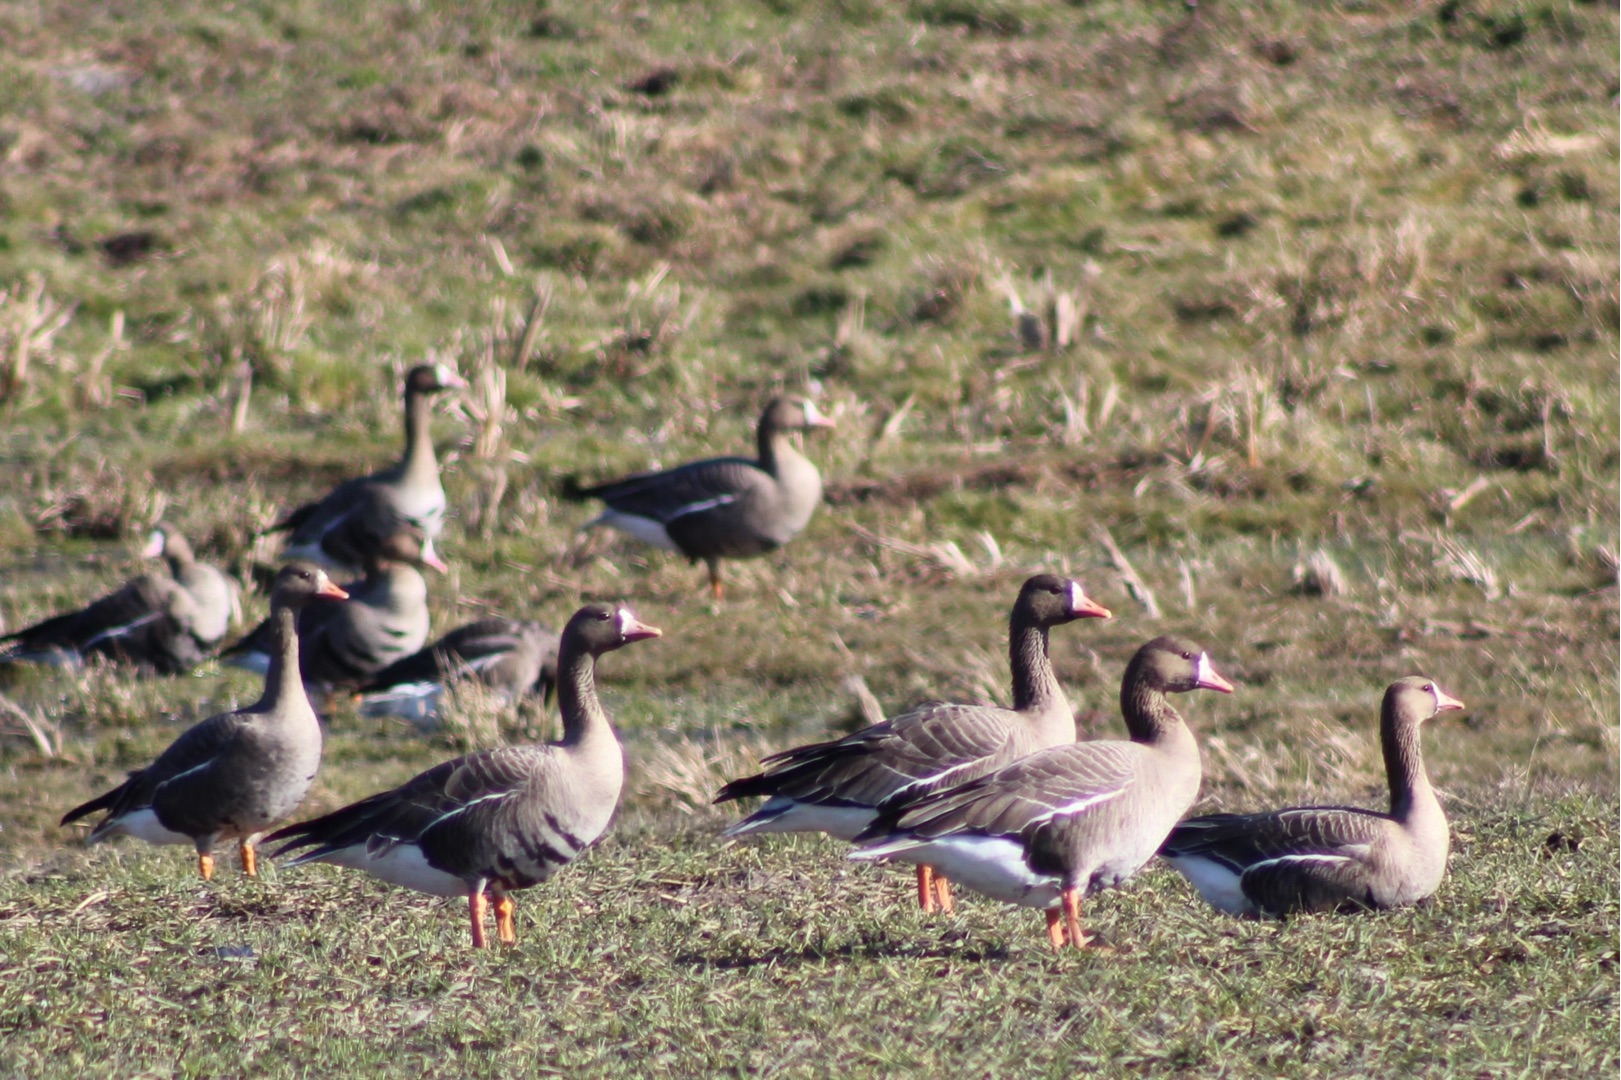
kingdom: Animalia
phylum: Chordata
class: Aves
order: Anseriformes
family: Anatidae
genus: Anser
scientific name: Anser albifrons
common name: Blisgås
